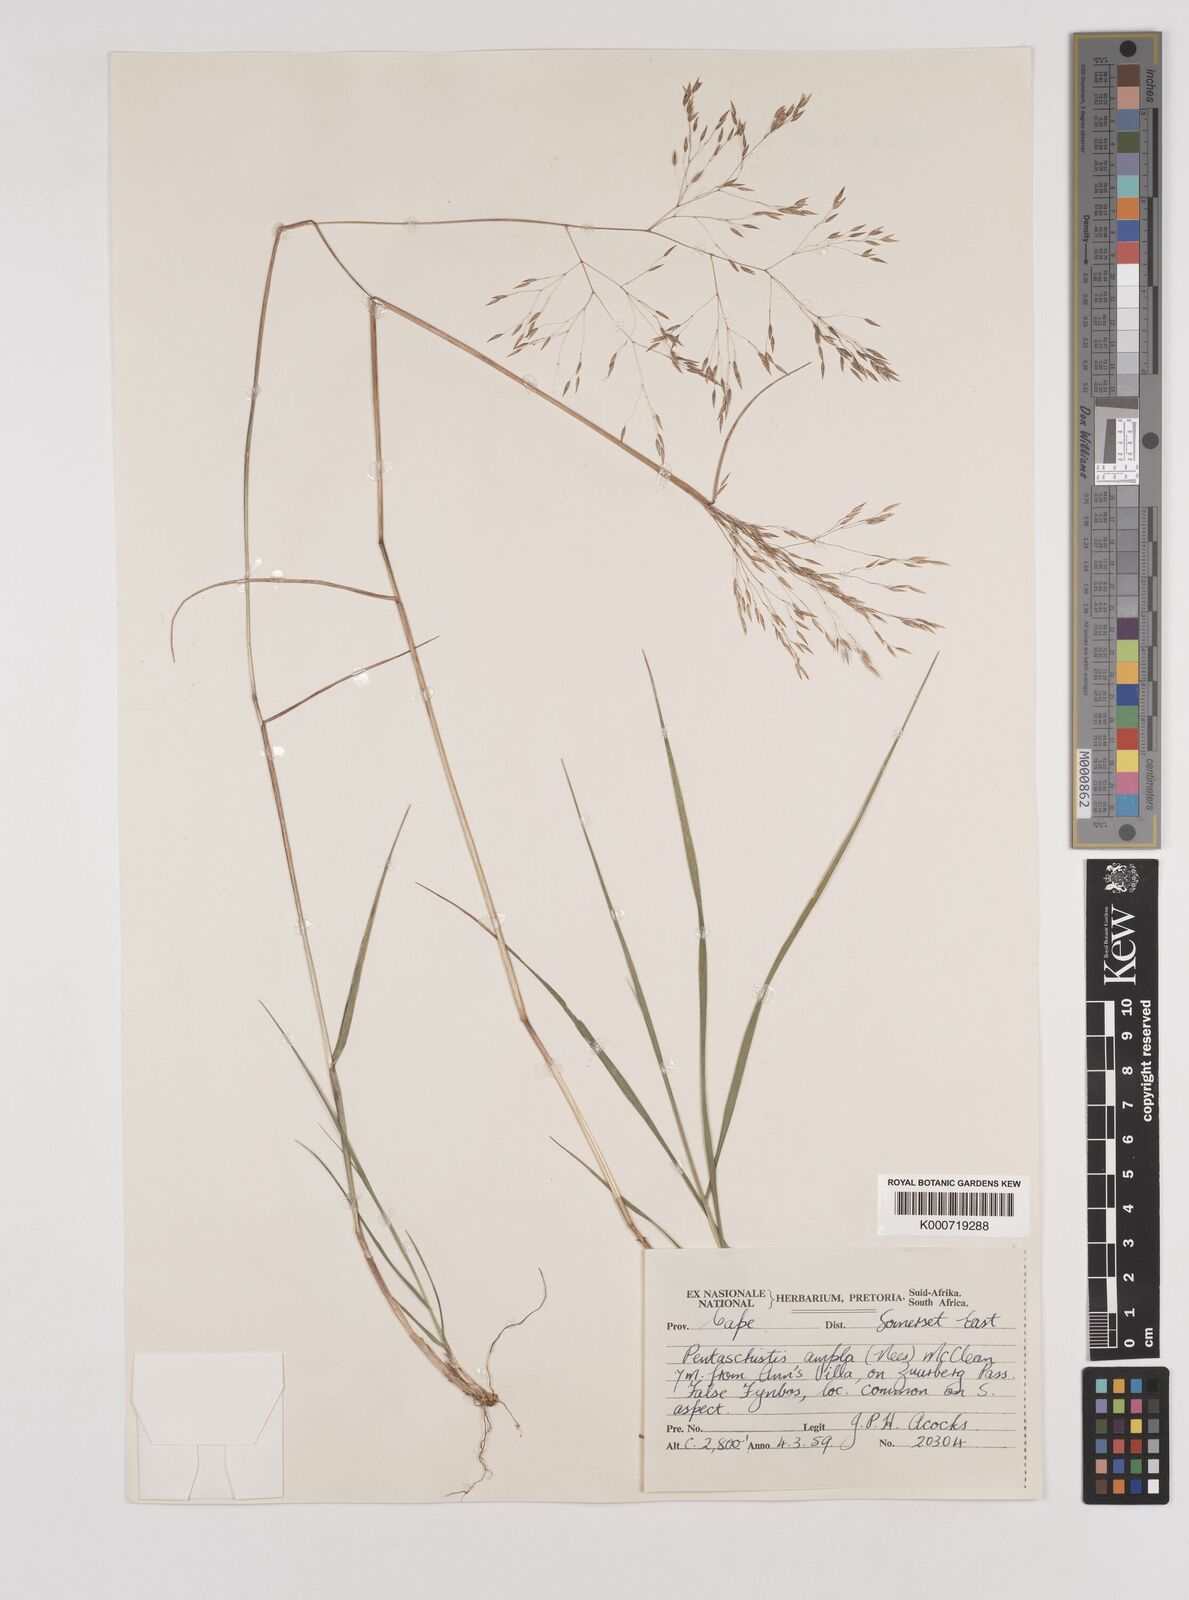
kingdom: Plantae
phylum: Tracheophyta
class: Liliopsida
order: Poales
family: Poaceae
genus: Pentameris
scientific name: Pentameris ampla
